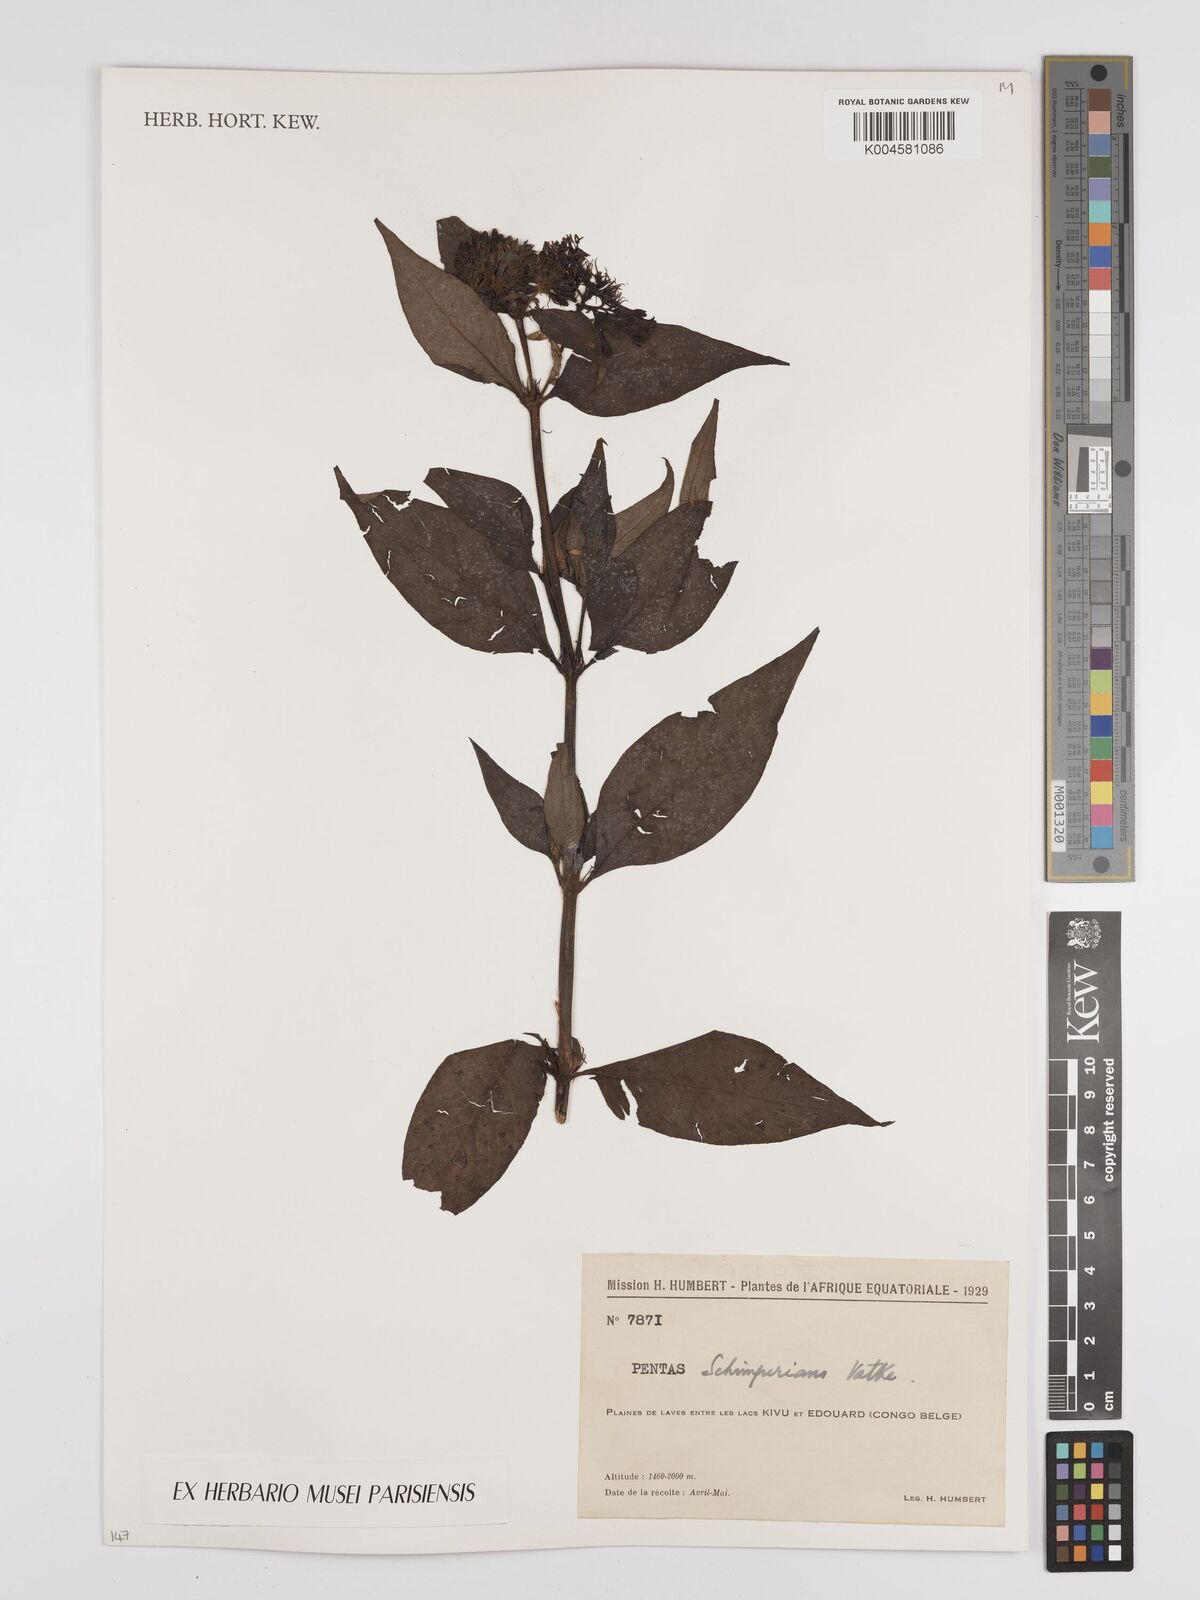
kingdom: Plantae
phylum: Tracheophyta
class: Magnoliopsida
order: Gentianales
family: Rubiaceae
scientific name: Rubiaceae
